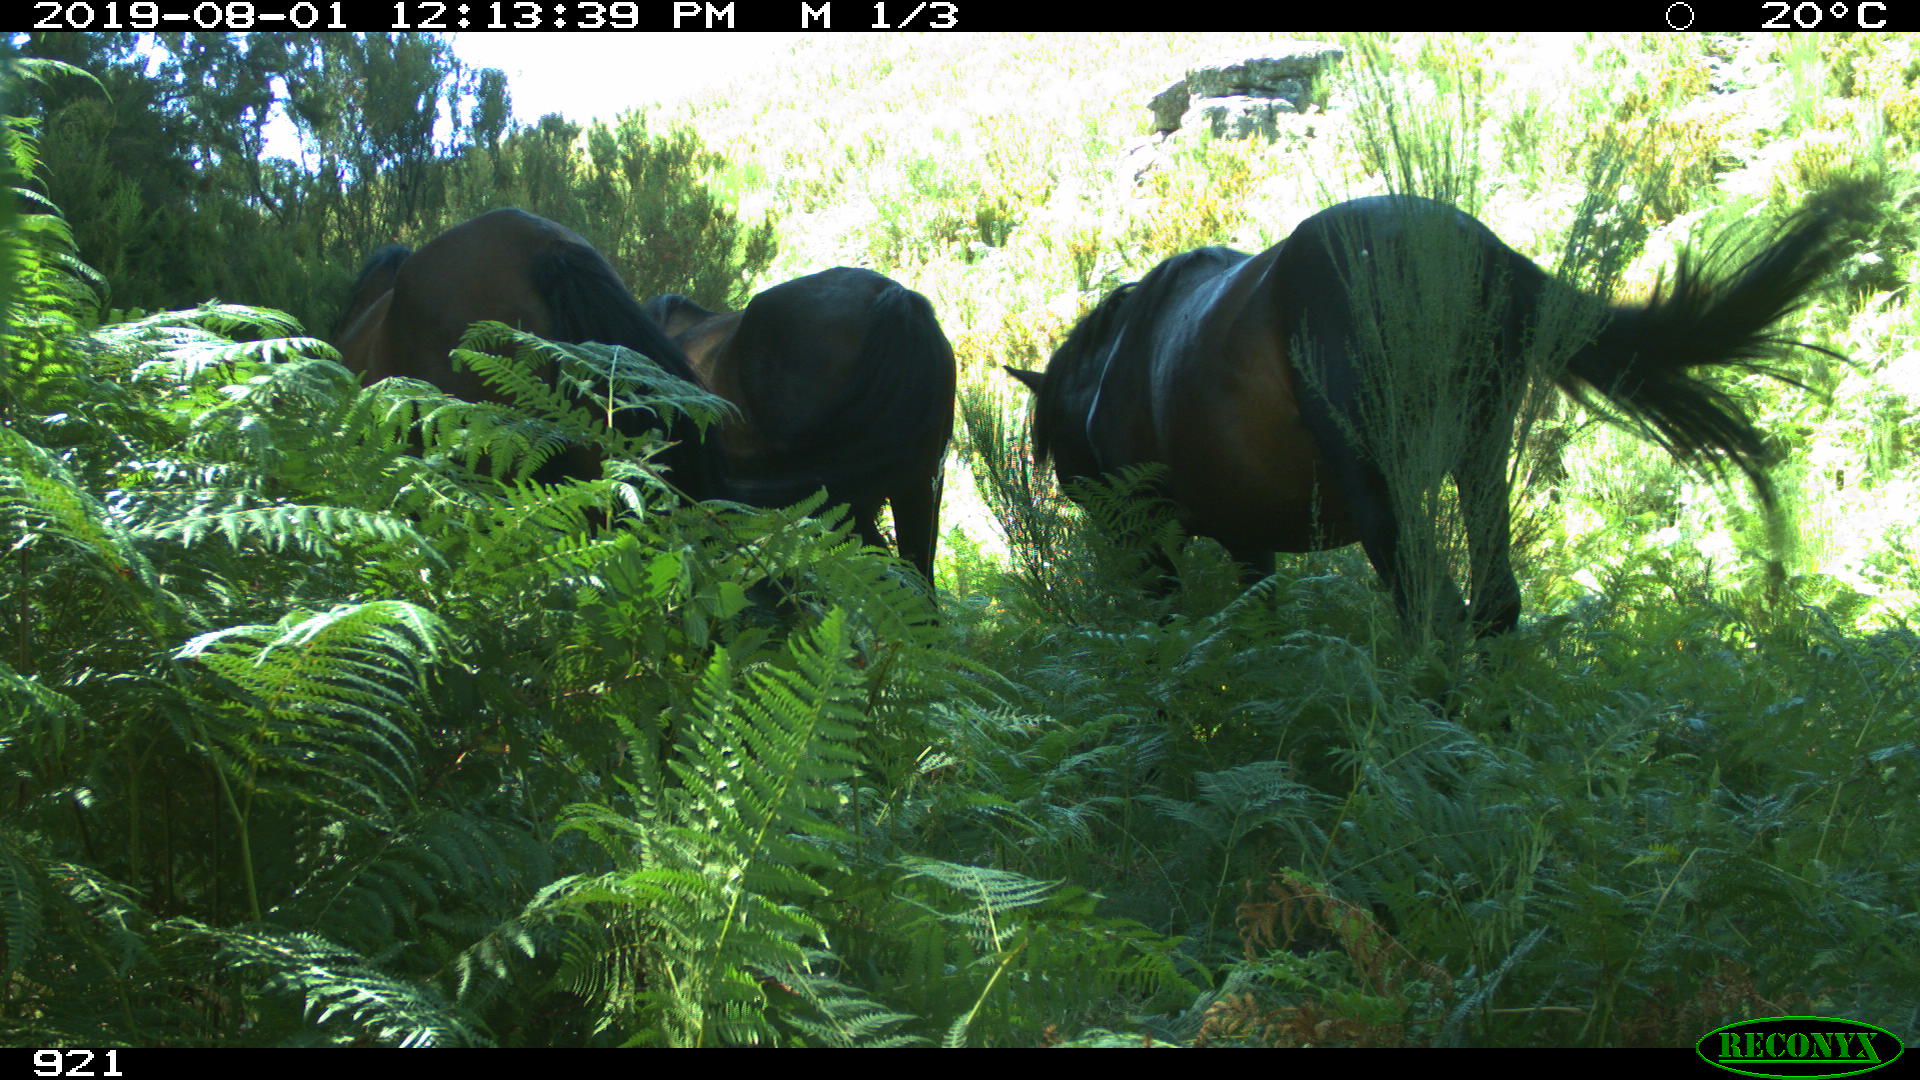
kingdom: Animalia
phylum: Chordata
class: Mammalia
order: Perissodactyla
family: Equidae
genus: Equus
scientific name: Equus caballus
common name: Horse
